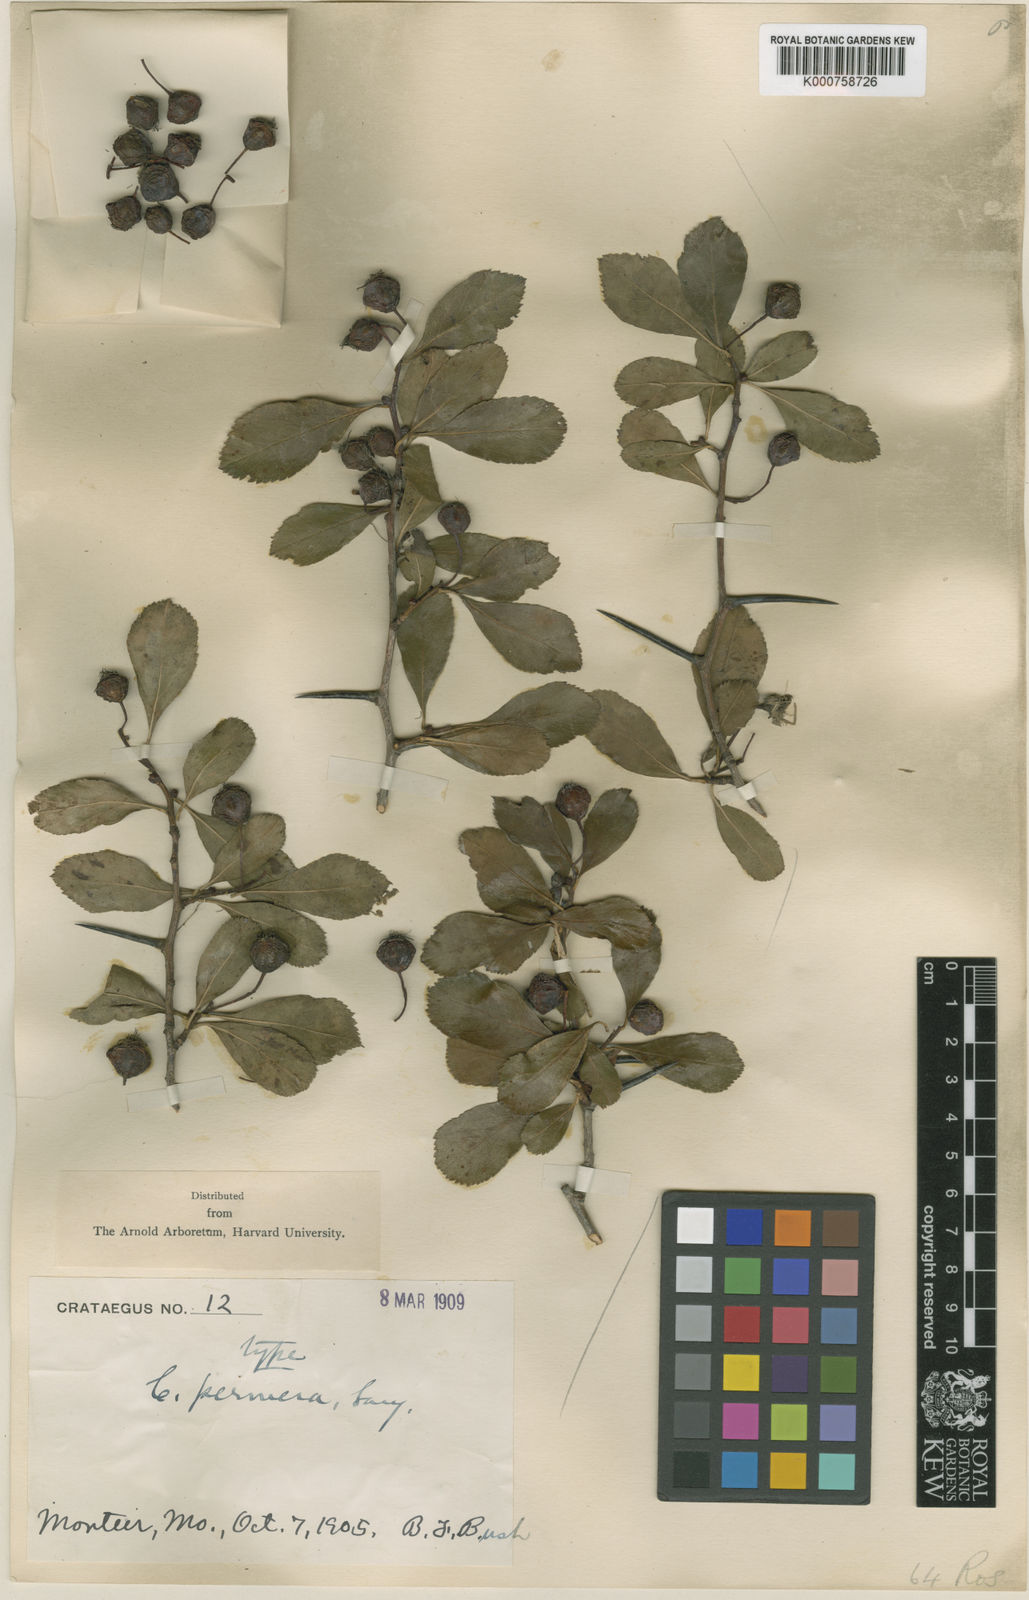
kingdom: Plantae
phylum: Tracheophyta
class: Magnoliopsida
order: Rosales
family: Rosaceae
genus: Crataegus
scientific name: Crataegus permera
